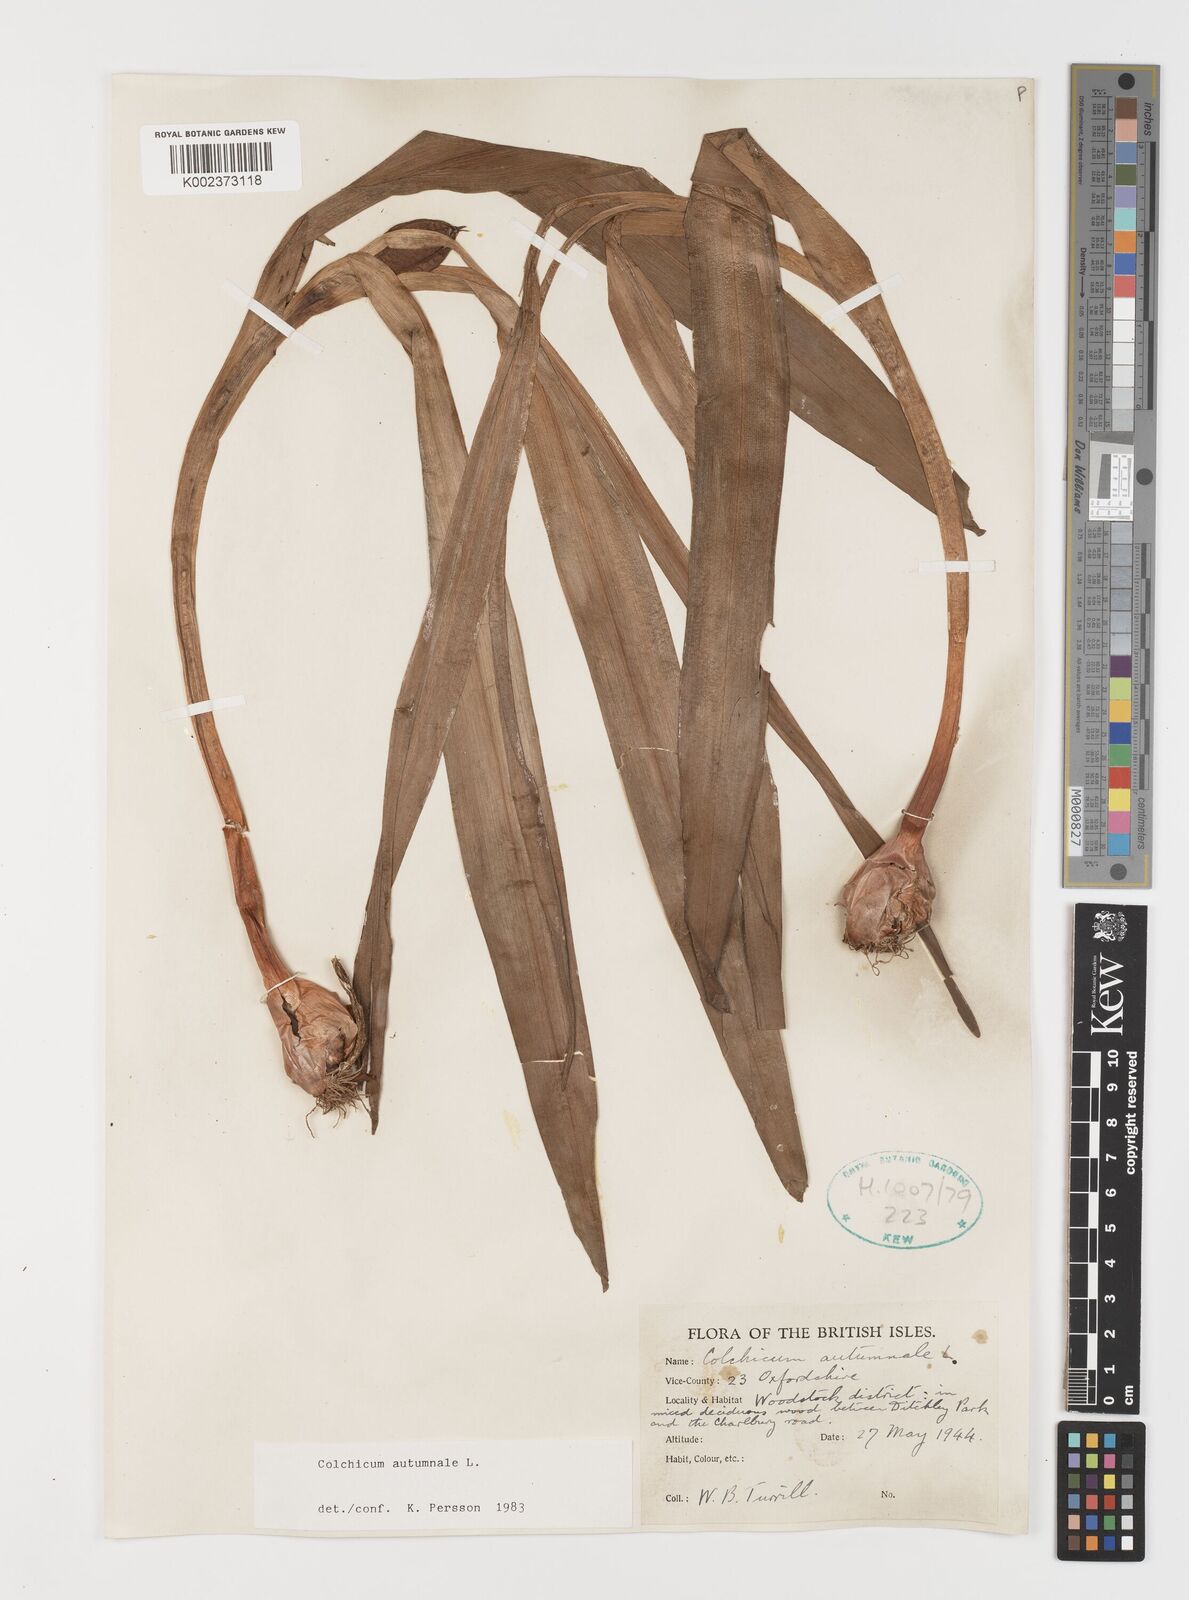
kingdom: Plantae
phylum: Tracheophyta
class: Liliopsida
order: Liliales
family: Colchicaceae
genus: Colchicum
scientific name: Colchicum autumnale
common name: Autumn crocus
